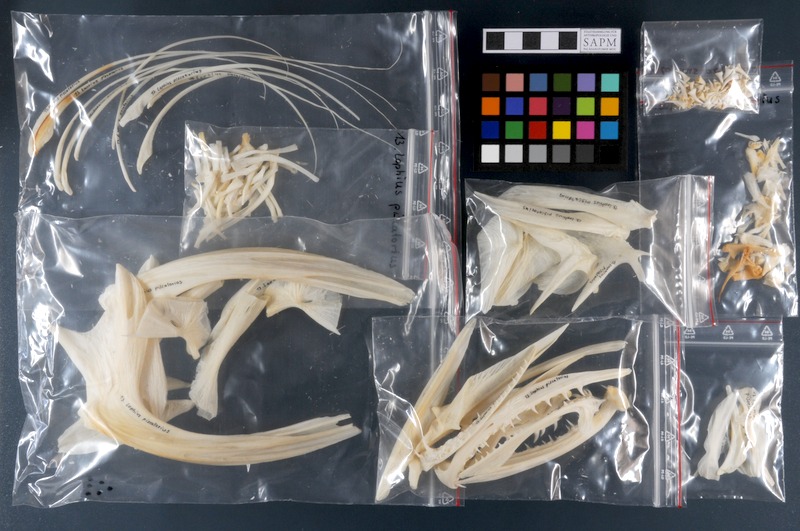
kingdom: Animalia
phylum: Chordata
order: Lophiiformes
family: Lophiidae
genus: Lophius
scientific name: Lophius piscatorius
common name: Angler
